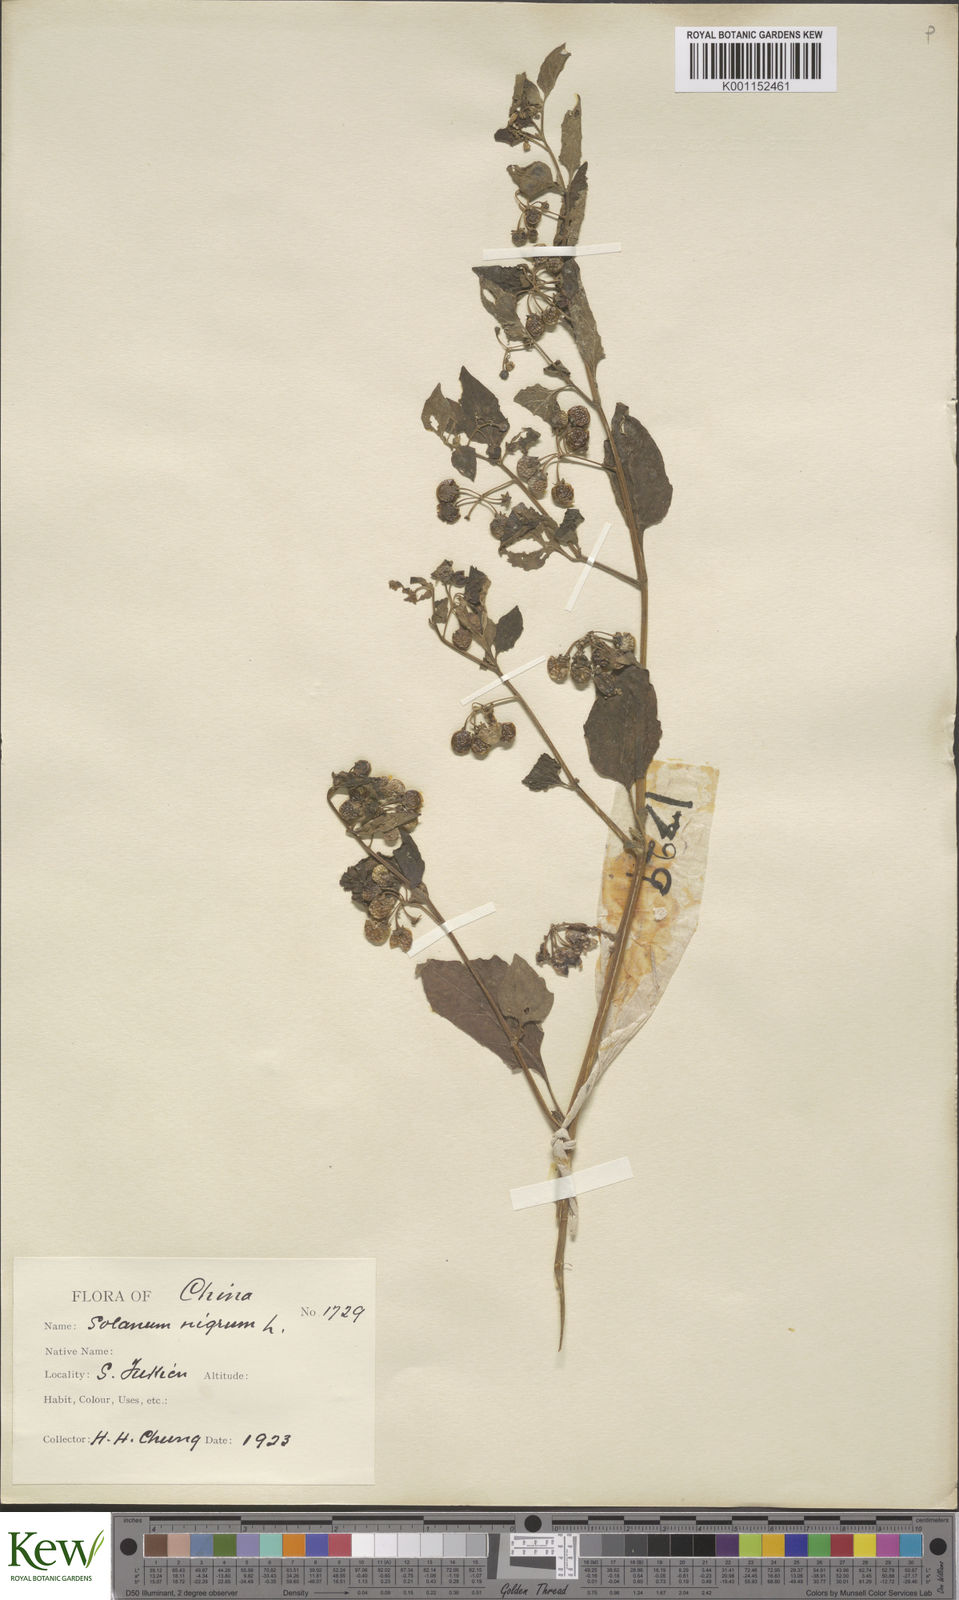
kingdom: Plantae
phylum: Tracheophyta
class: Magnoliopsida
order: Solanales
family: Solanaceae
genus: Solanum
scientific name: Solanum nigrum
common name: Black nightshade
